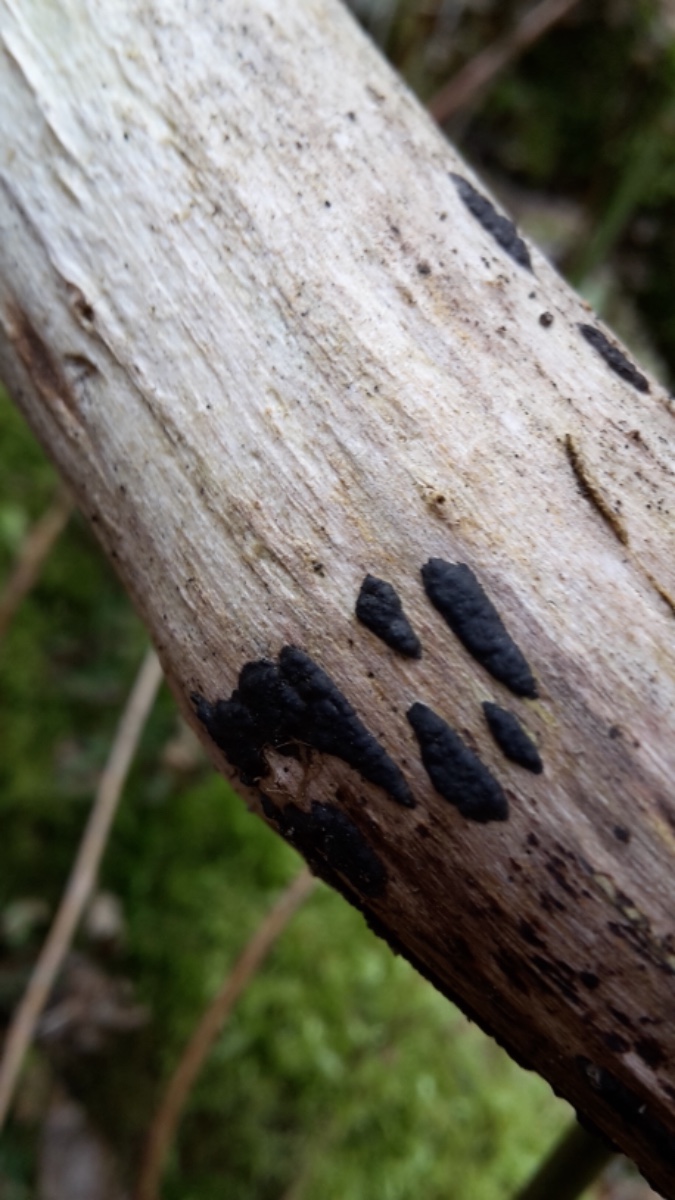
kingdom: Fungi
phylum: Ascomycota
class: Sordariomycetes
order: Xylariales
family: Xylariaceae
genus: Nemania
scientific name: Nemania
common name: kuldyne
